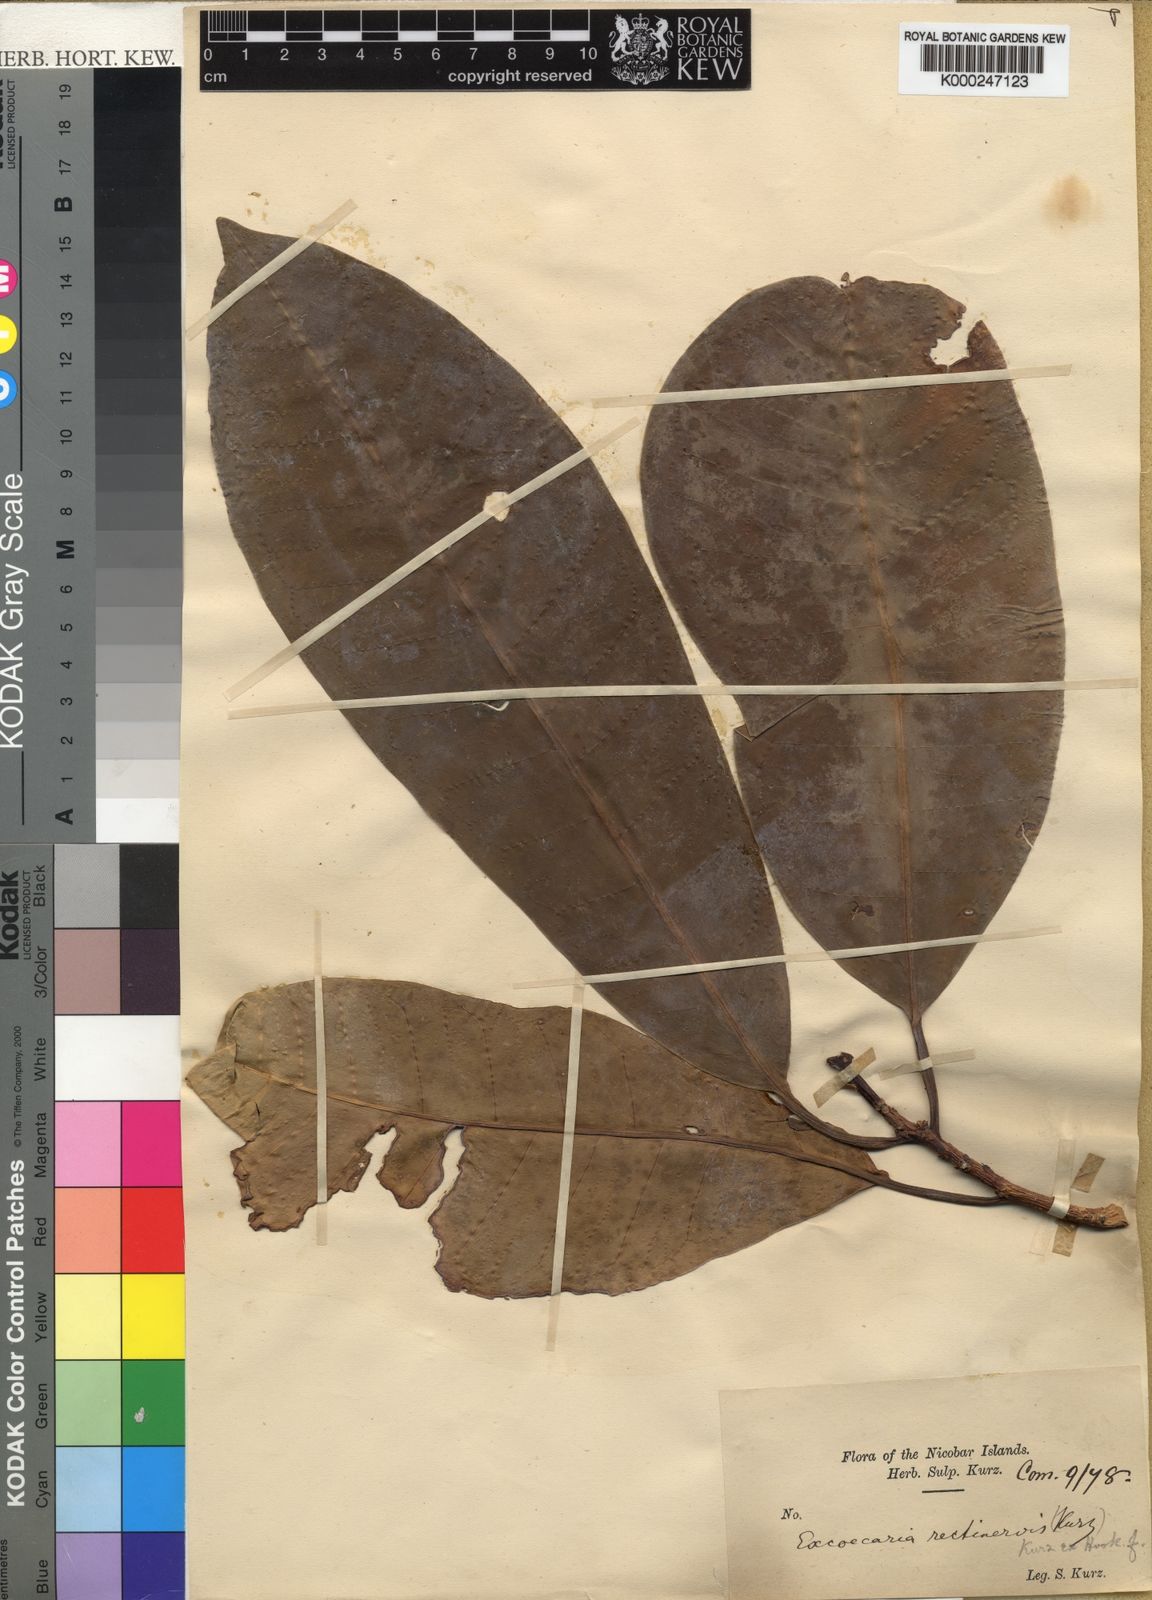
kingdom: Plantae
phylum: Tracheophyta
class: Magnoliopsida
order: Malpighiales
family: Euphorbiaceae
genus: Excoecaria
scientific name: Excoecaria
